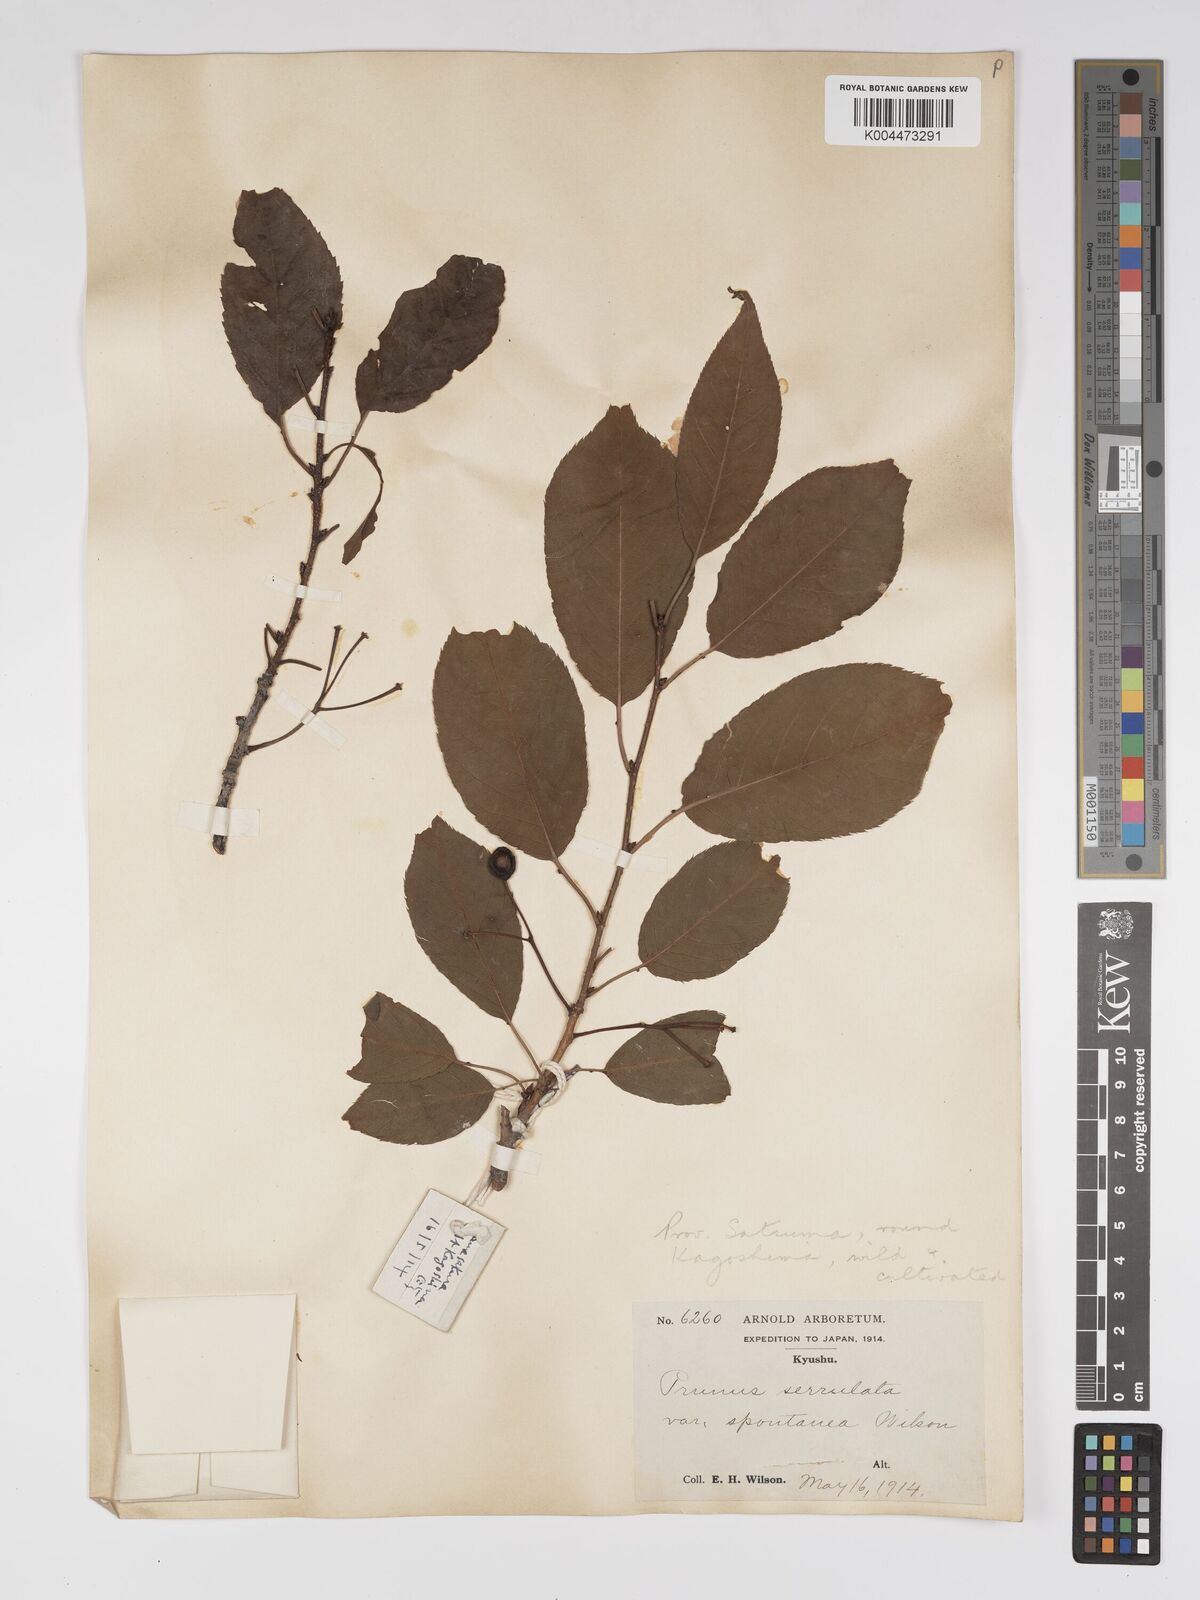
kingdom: Plantae
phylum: Tracheophyta
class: Magnoliopsida
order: Rosales
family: Rosaceae
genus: Prunus
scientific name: Prunus serrulata
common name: Japanese cherry
